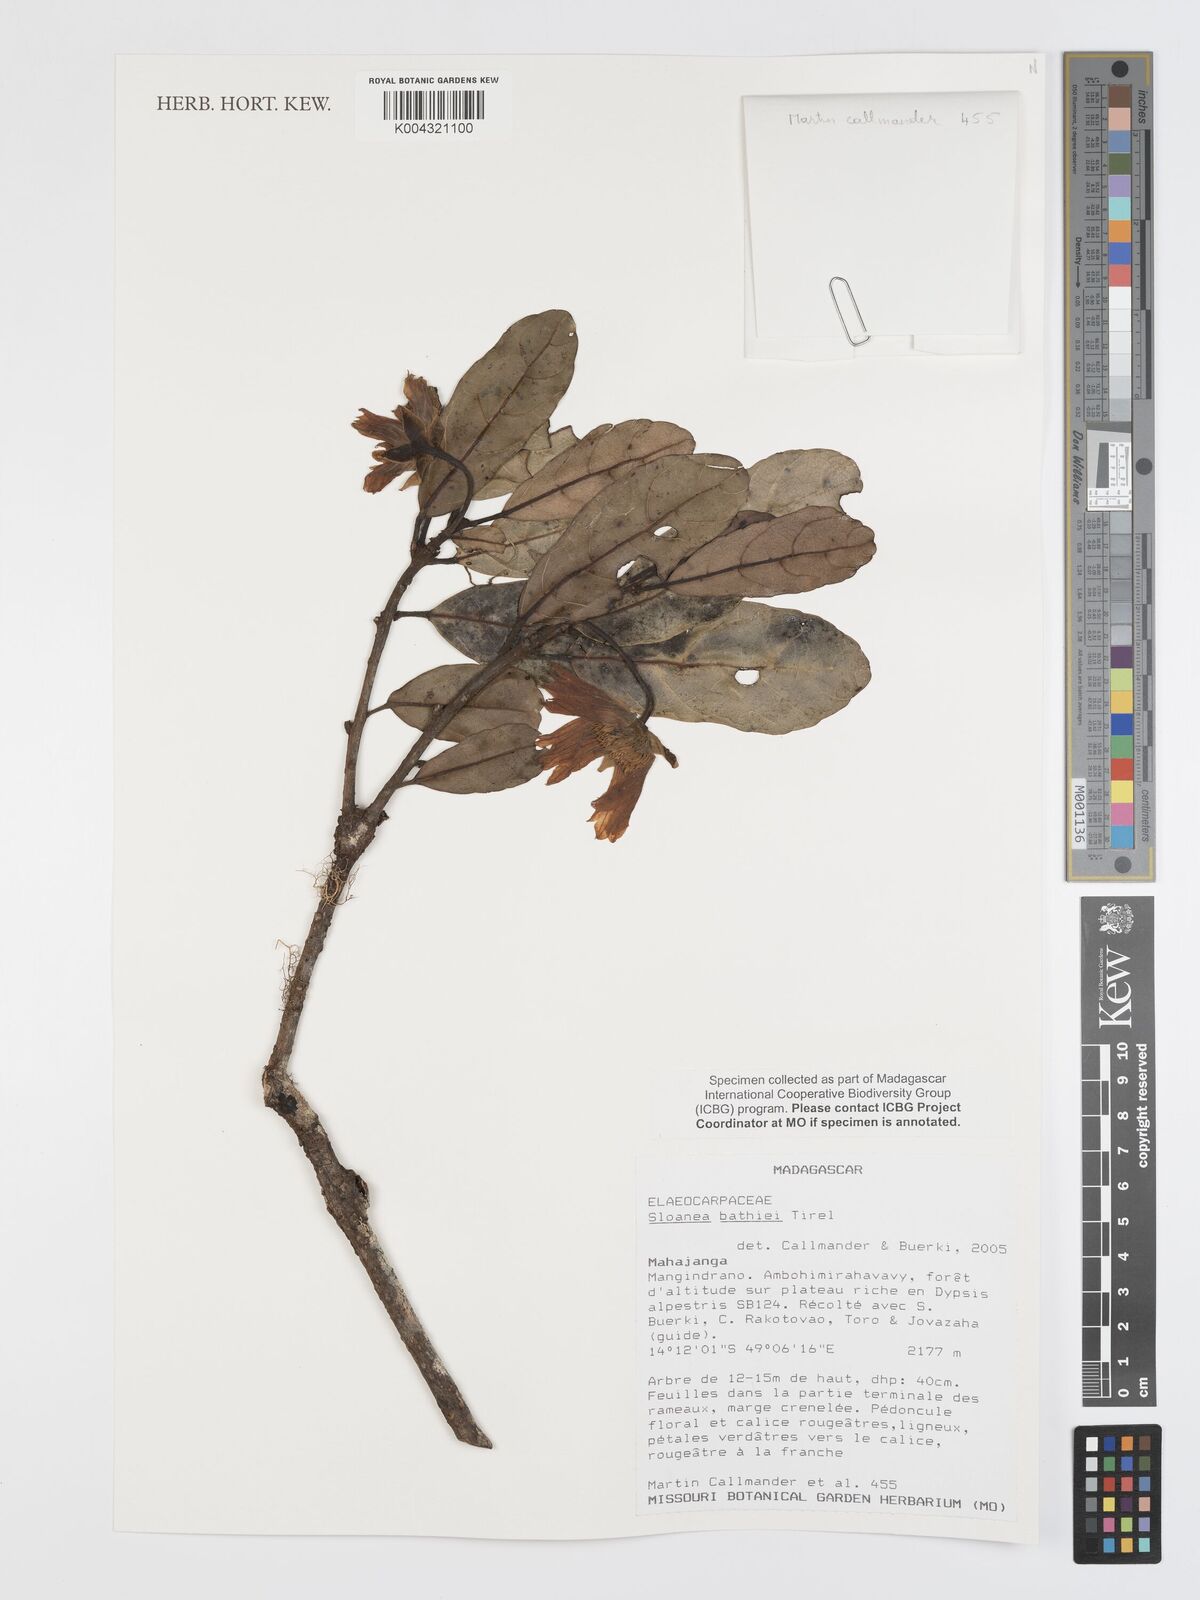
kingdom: Plantae
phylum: Tracheophyta
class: Magnoliopsida
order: Oxalidales
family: Elaeocarpaceae
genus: Sloanea
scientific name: Sloanea bathiei
